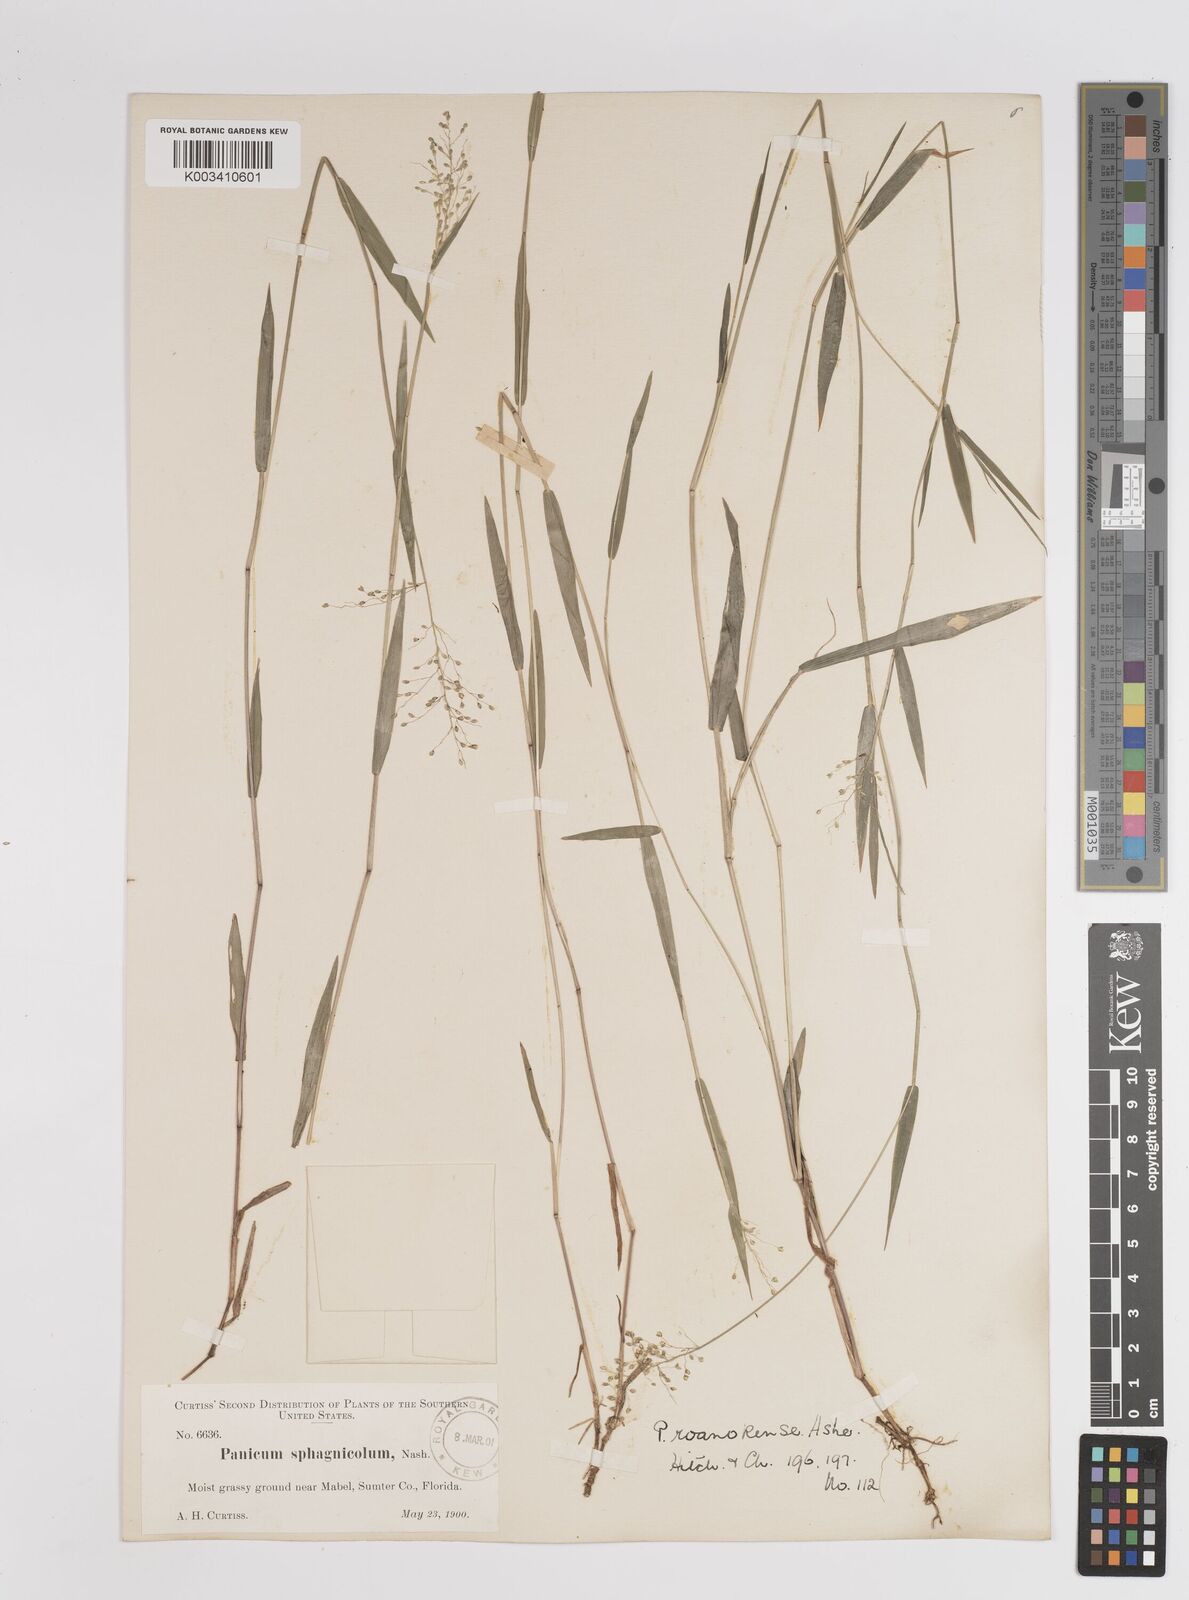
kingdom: Plantae
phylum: Tracheophyta
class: Liliopsida
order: Poales
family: Poaceae
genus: Dichanthelium
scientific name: Dichanthelium lucidum
